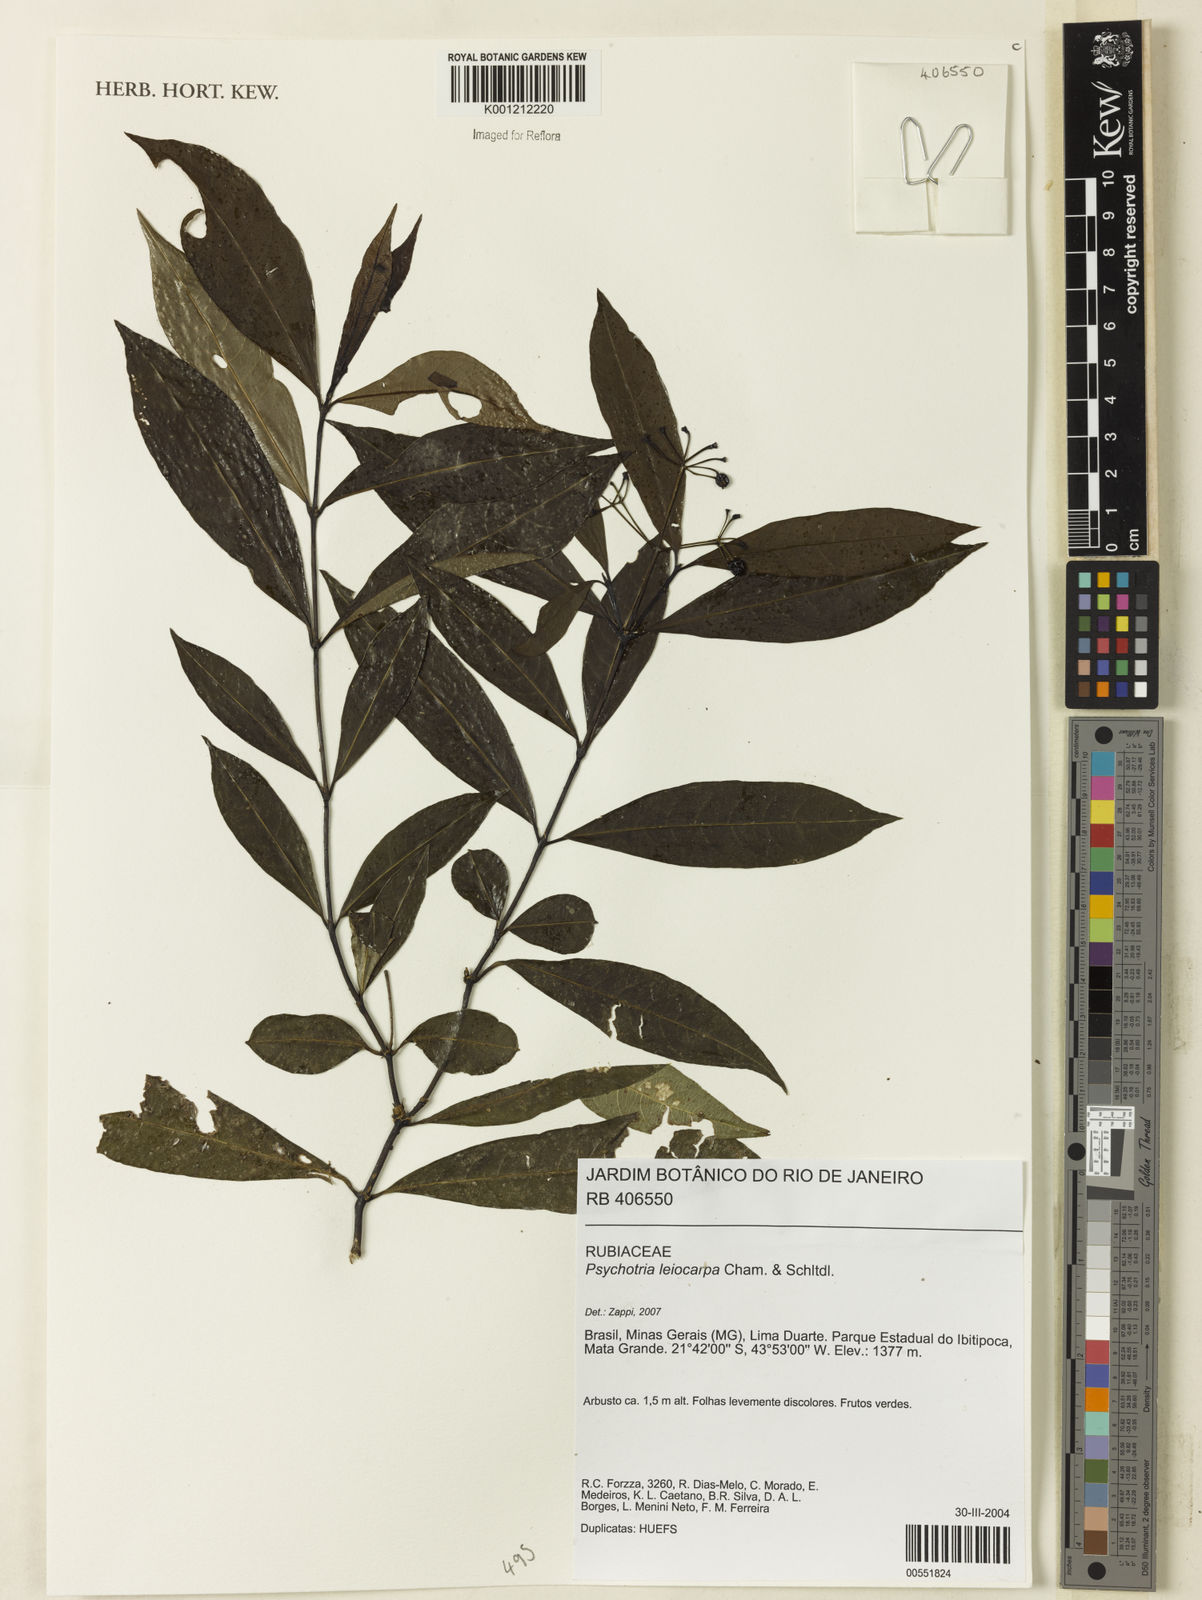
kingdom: Plantae
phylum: Tracheophyta
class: Magnoliopsida
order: Gentianales
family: Rubiaceae
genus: Psychotria
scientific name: Psychotria leiocarpa
